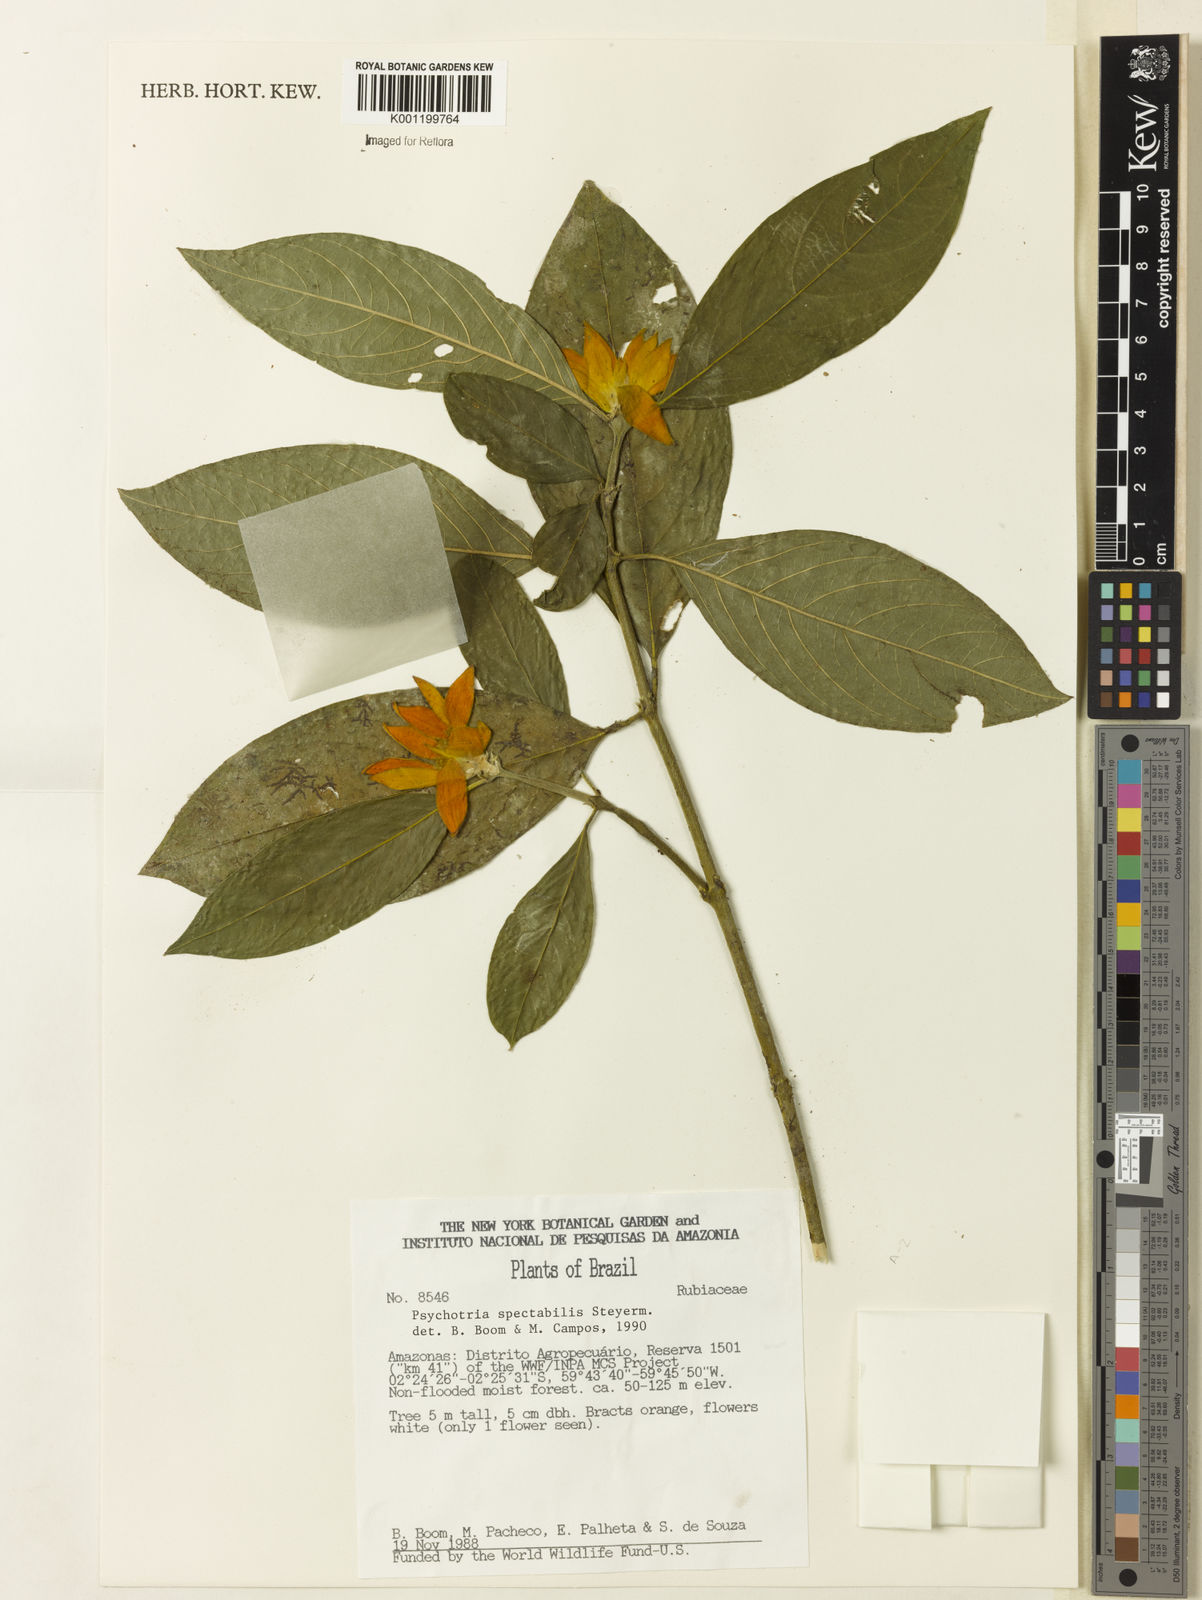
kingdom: Plantae
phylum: Tracheophyta
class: Magnoliopsida
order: Gentianales
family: Rubiaceae
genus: Palicourea
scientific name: Palicourea spectabilis
